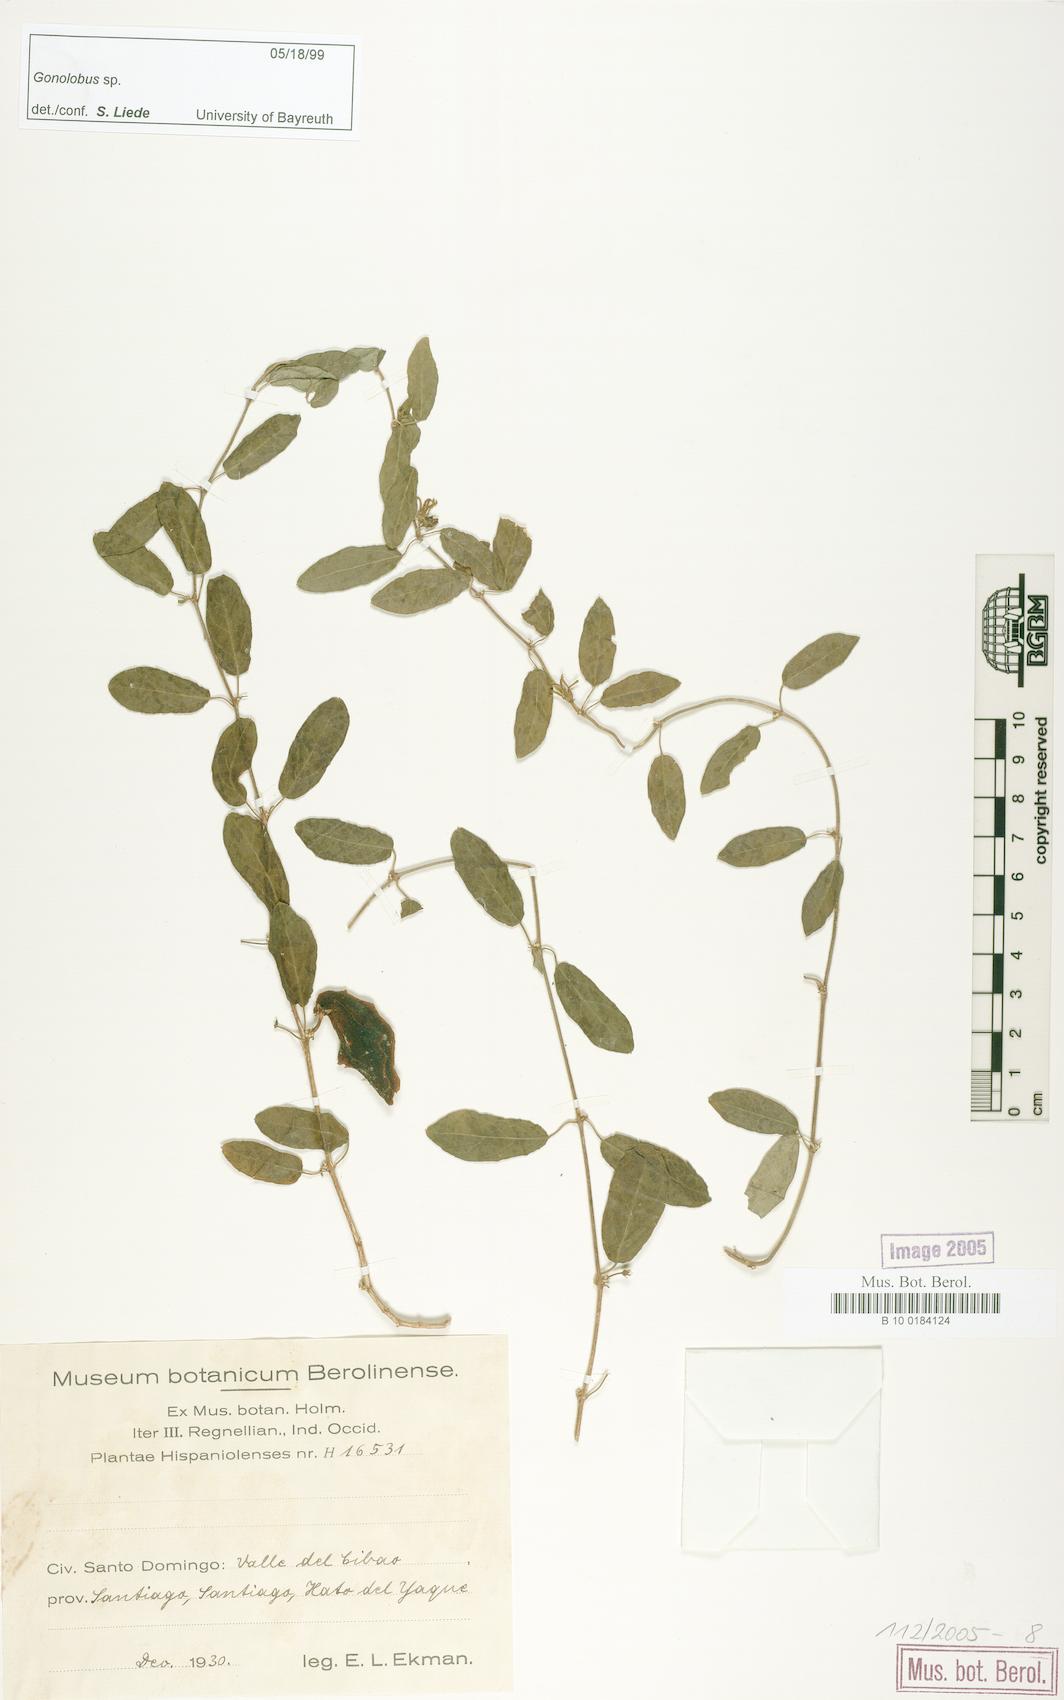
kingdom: Plantae
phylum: Tracheophyta
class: Magnoliopsida
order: Gentianales
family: Apocynaceae
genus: Gonolobus
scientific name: Gonolobus
